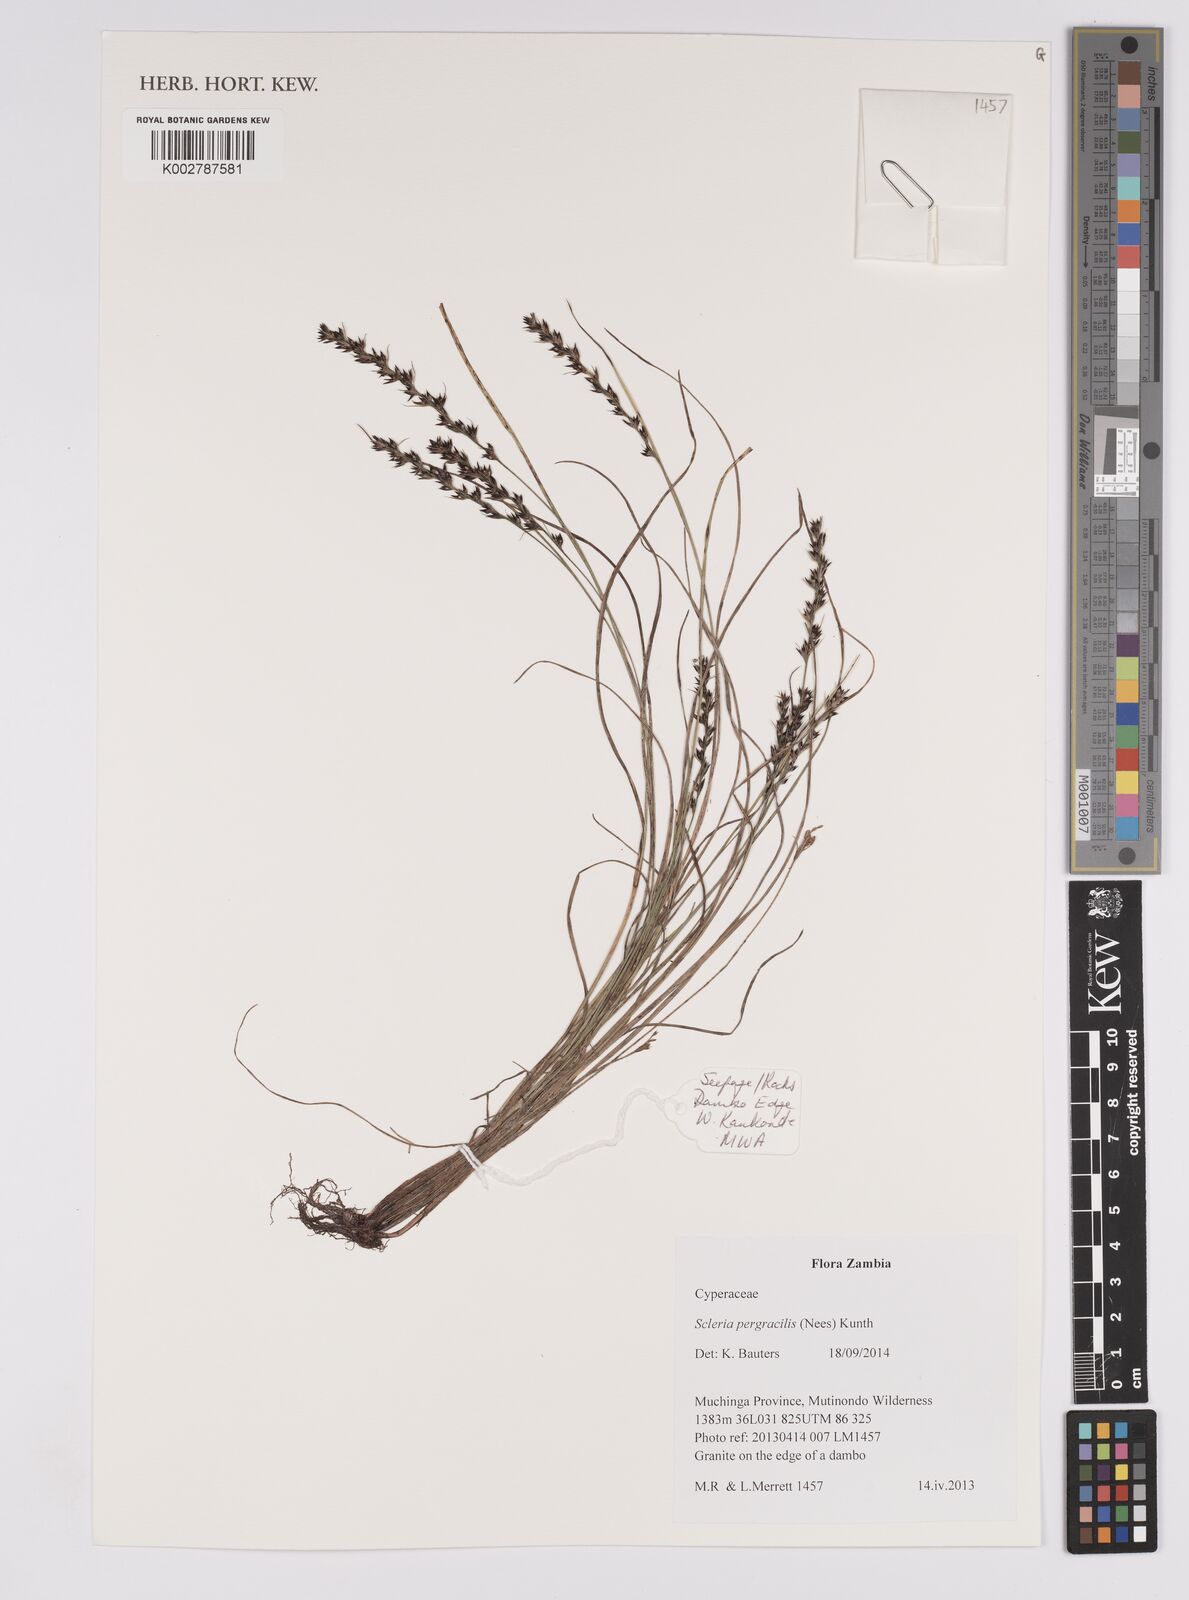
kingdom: Plantae
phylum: Tracheophyta
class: Liliopsida
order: Poales
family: Cyperaceae
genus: Scleria
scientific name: Scleria pergracilis
